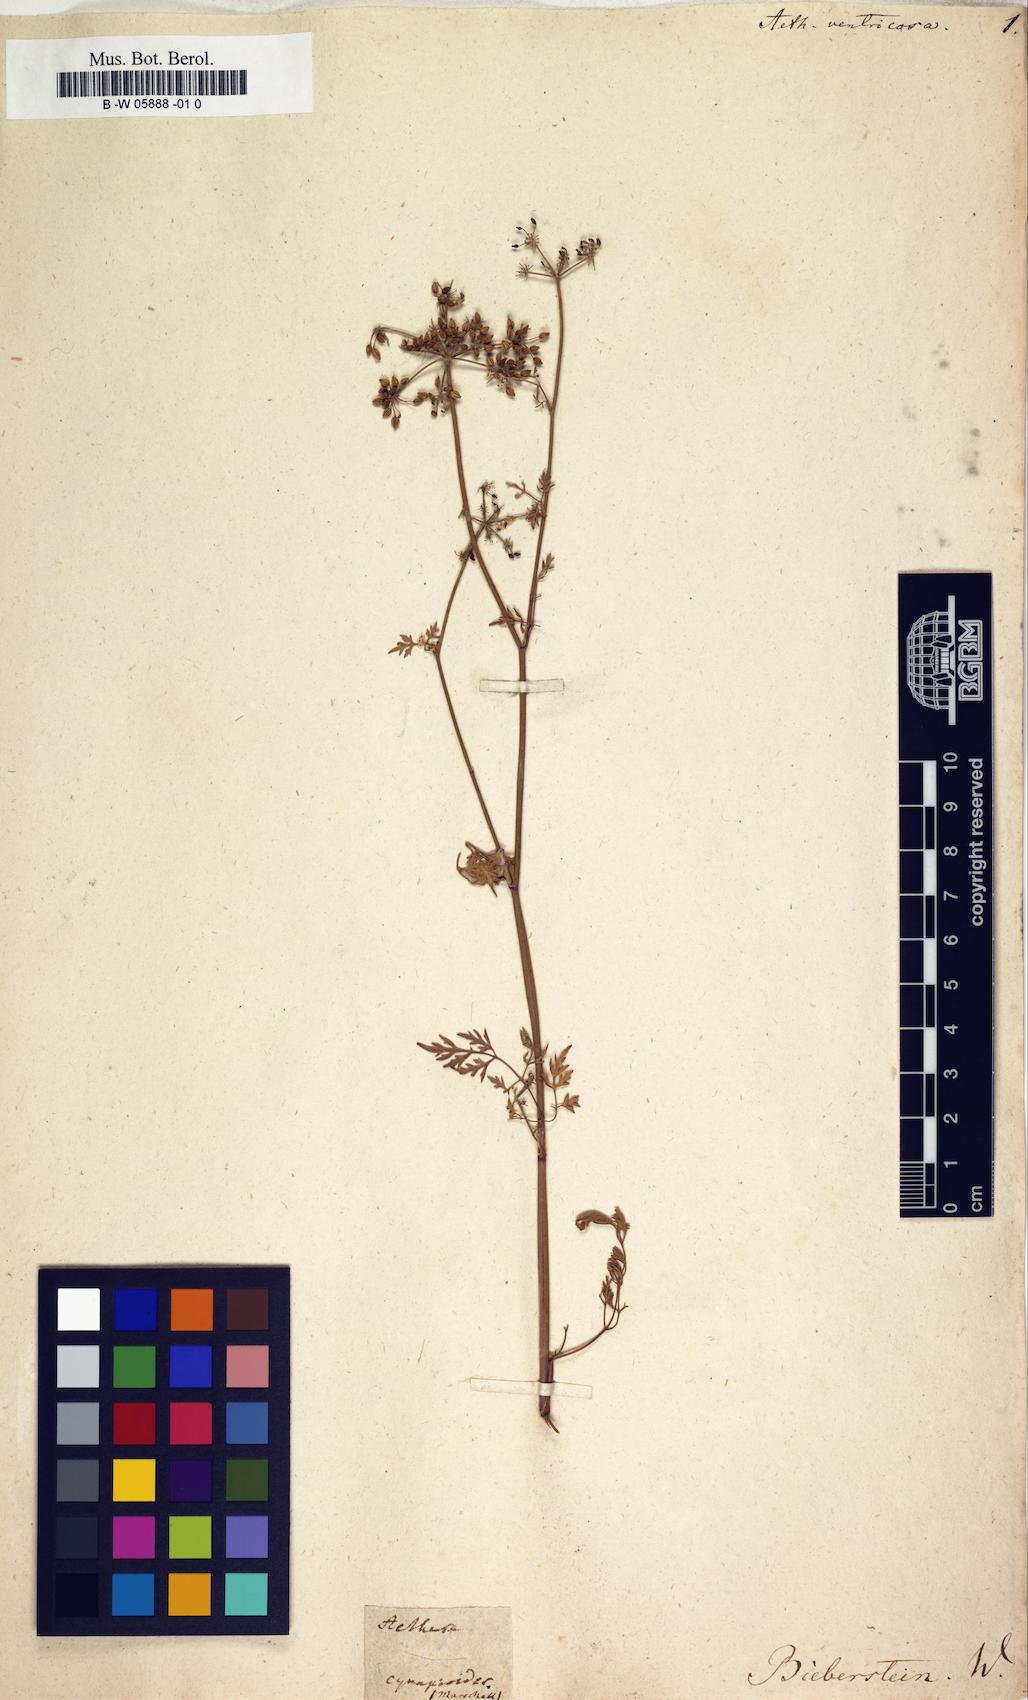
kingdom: Plantae
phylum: Tracheophyta
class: Magnoliopsida
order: Apiales
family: Apiaceae
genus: Aethusa
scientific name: Aethusa
